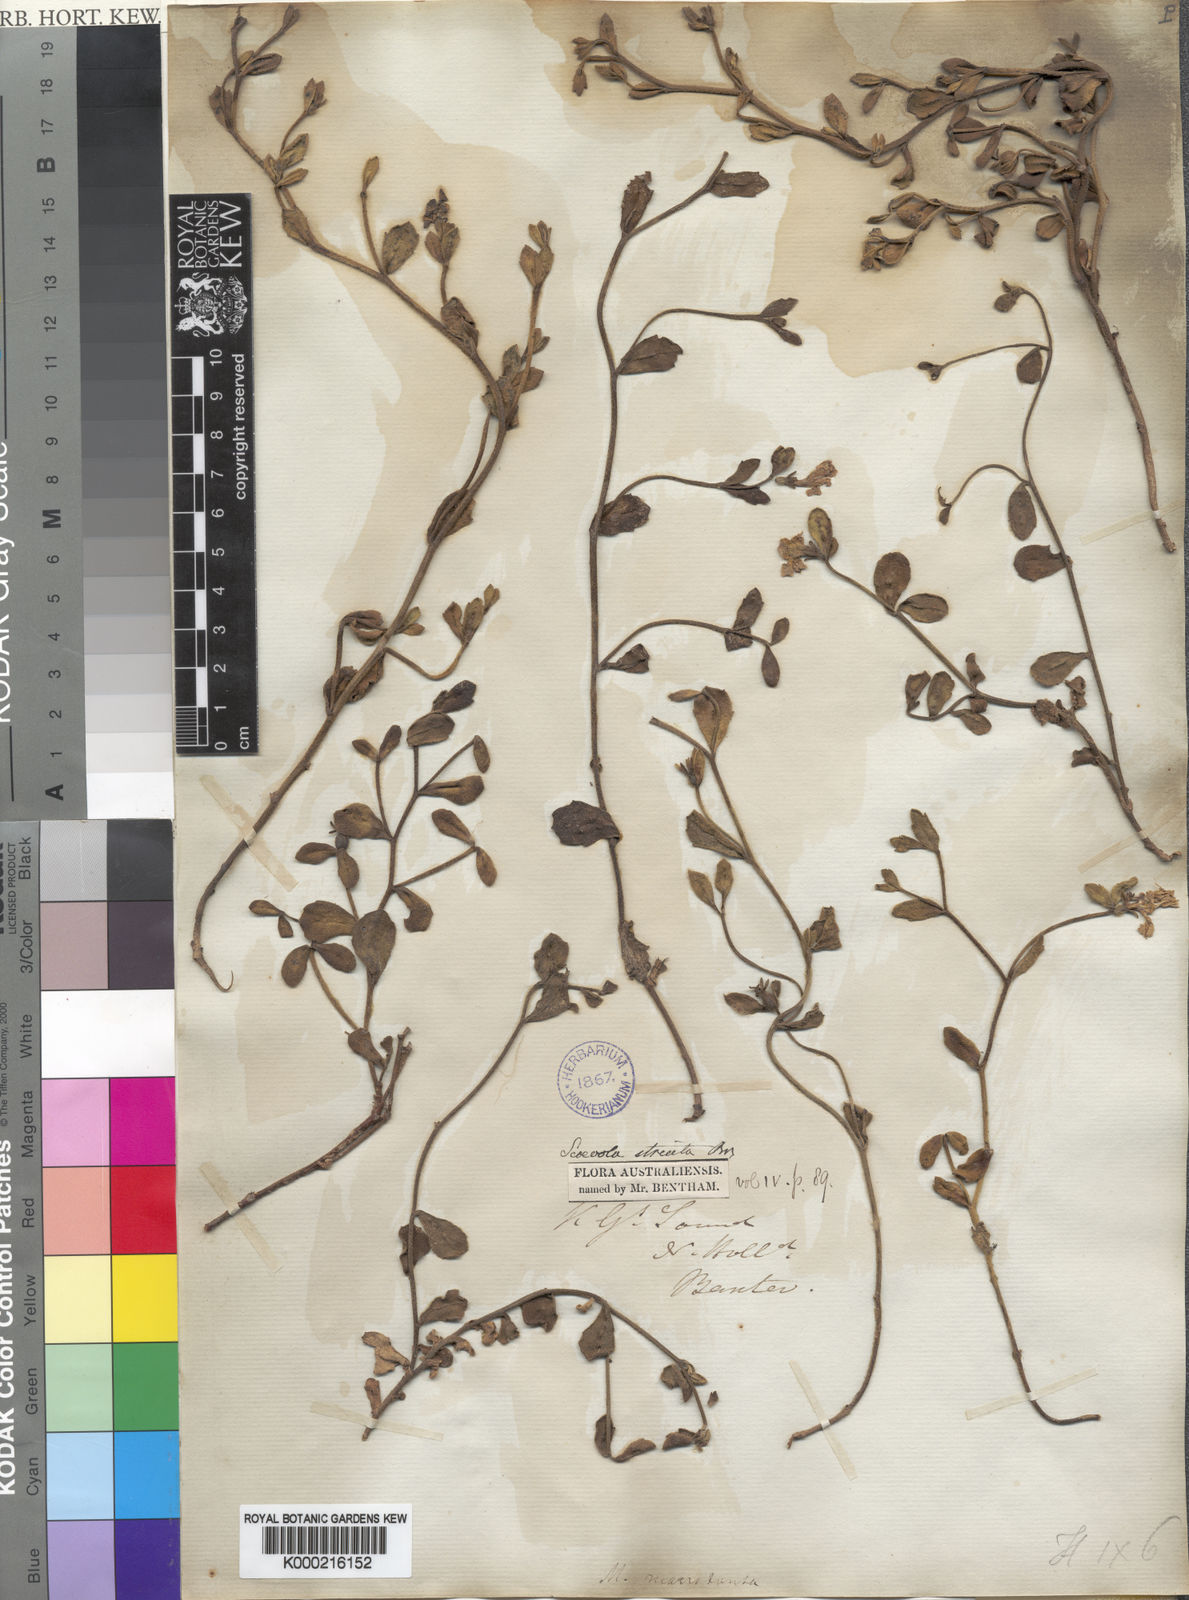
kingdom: Plantae
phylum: Tracheophyta
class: Magnoliopsida
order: Asterales
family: Goodeniaceae
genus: Scaevola
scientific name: Scaevola striata
